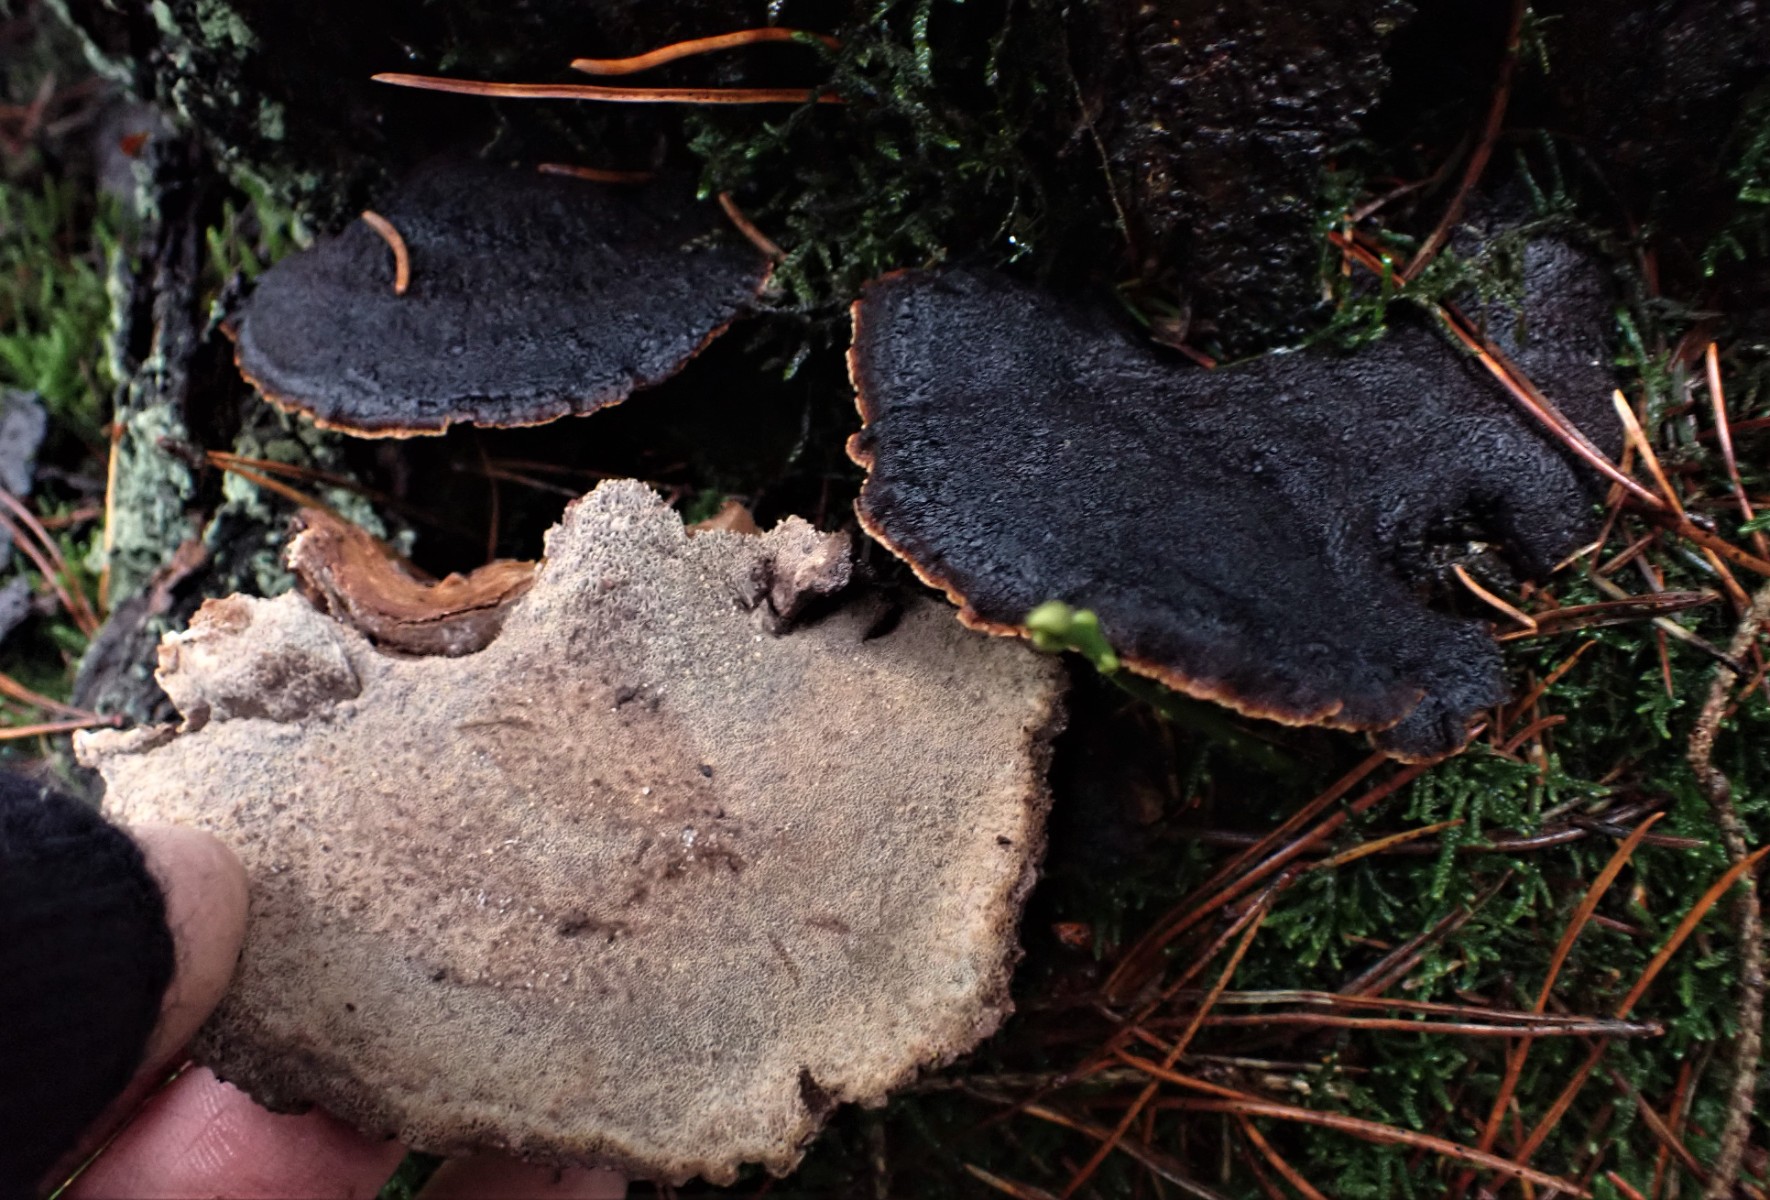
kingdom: Fungi
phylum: Basidiomycota
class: Agaricomycetes
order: Polyporales
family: Ischnodermataceae
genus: Ischnoderma
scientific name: Ischnoderma benzoinum
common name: gran-tjæreporesvamp
